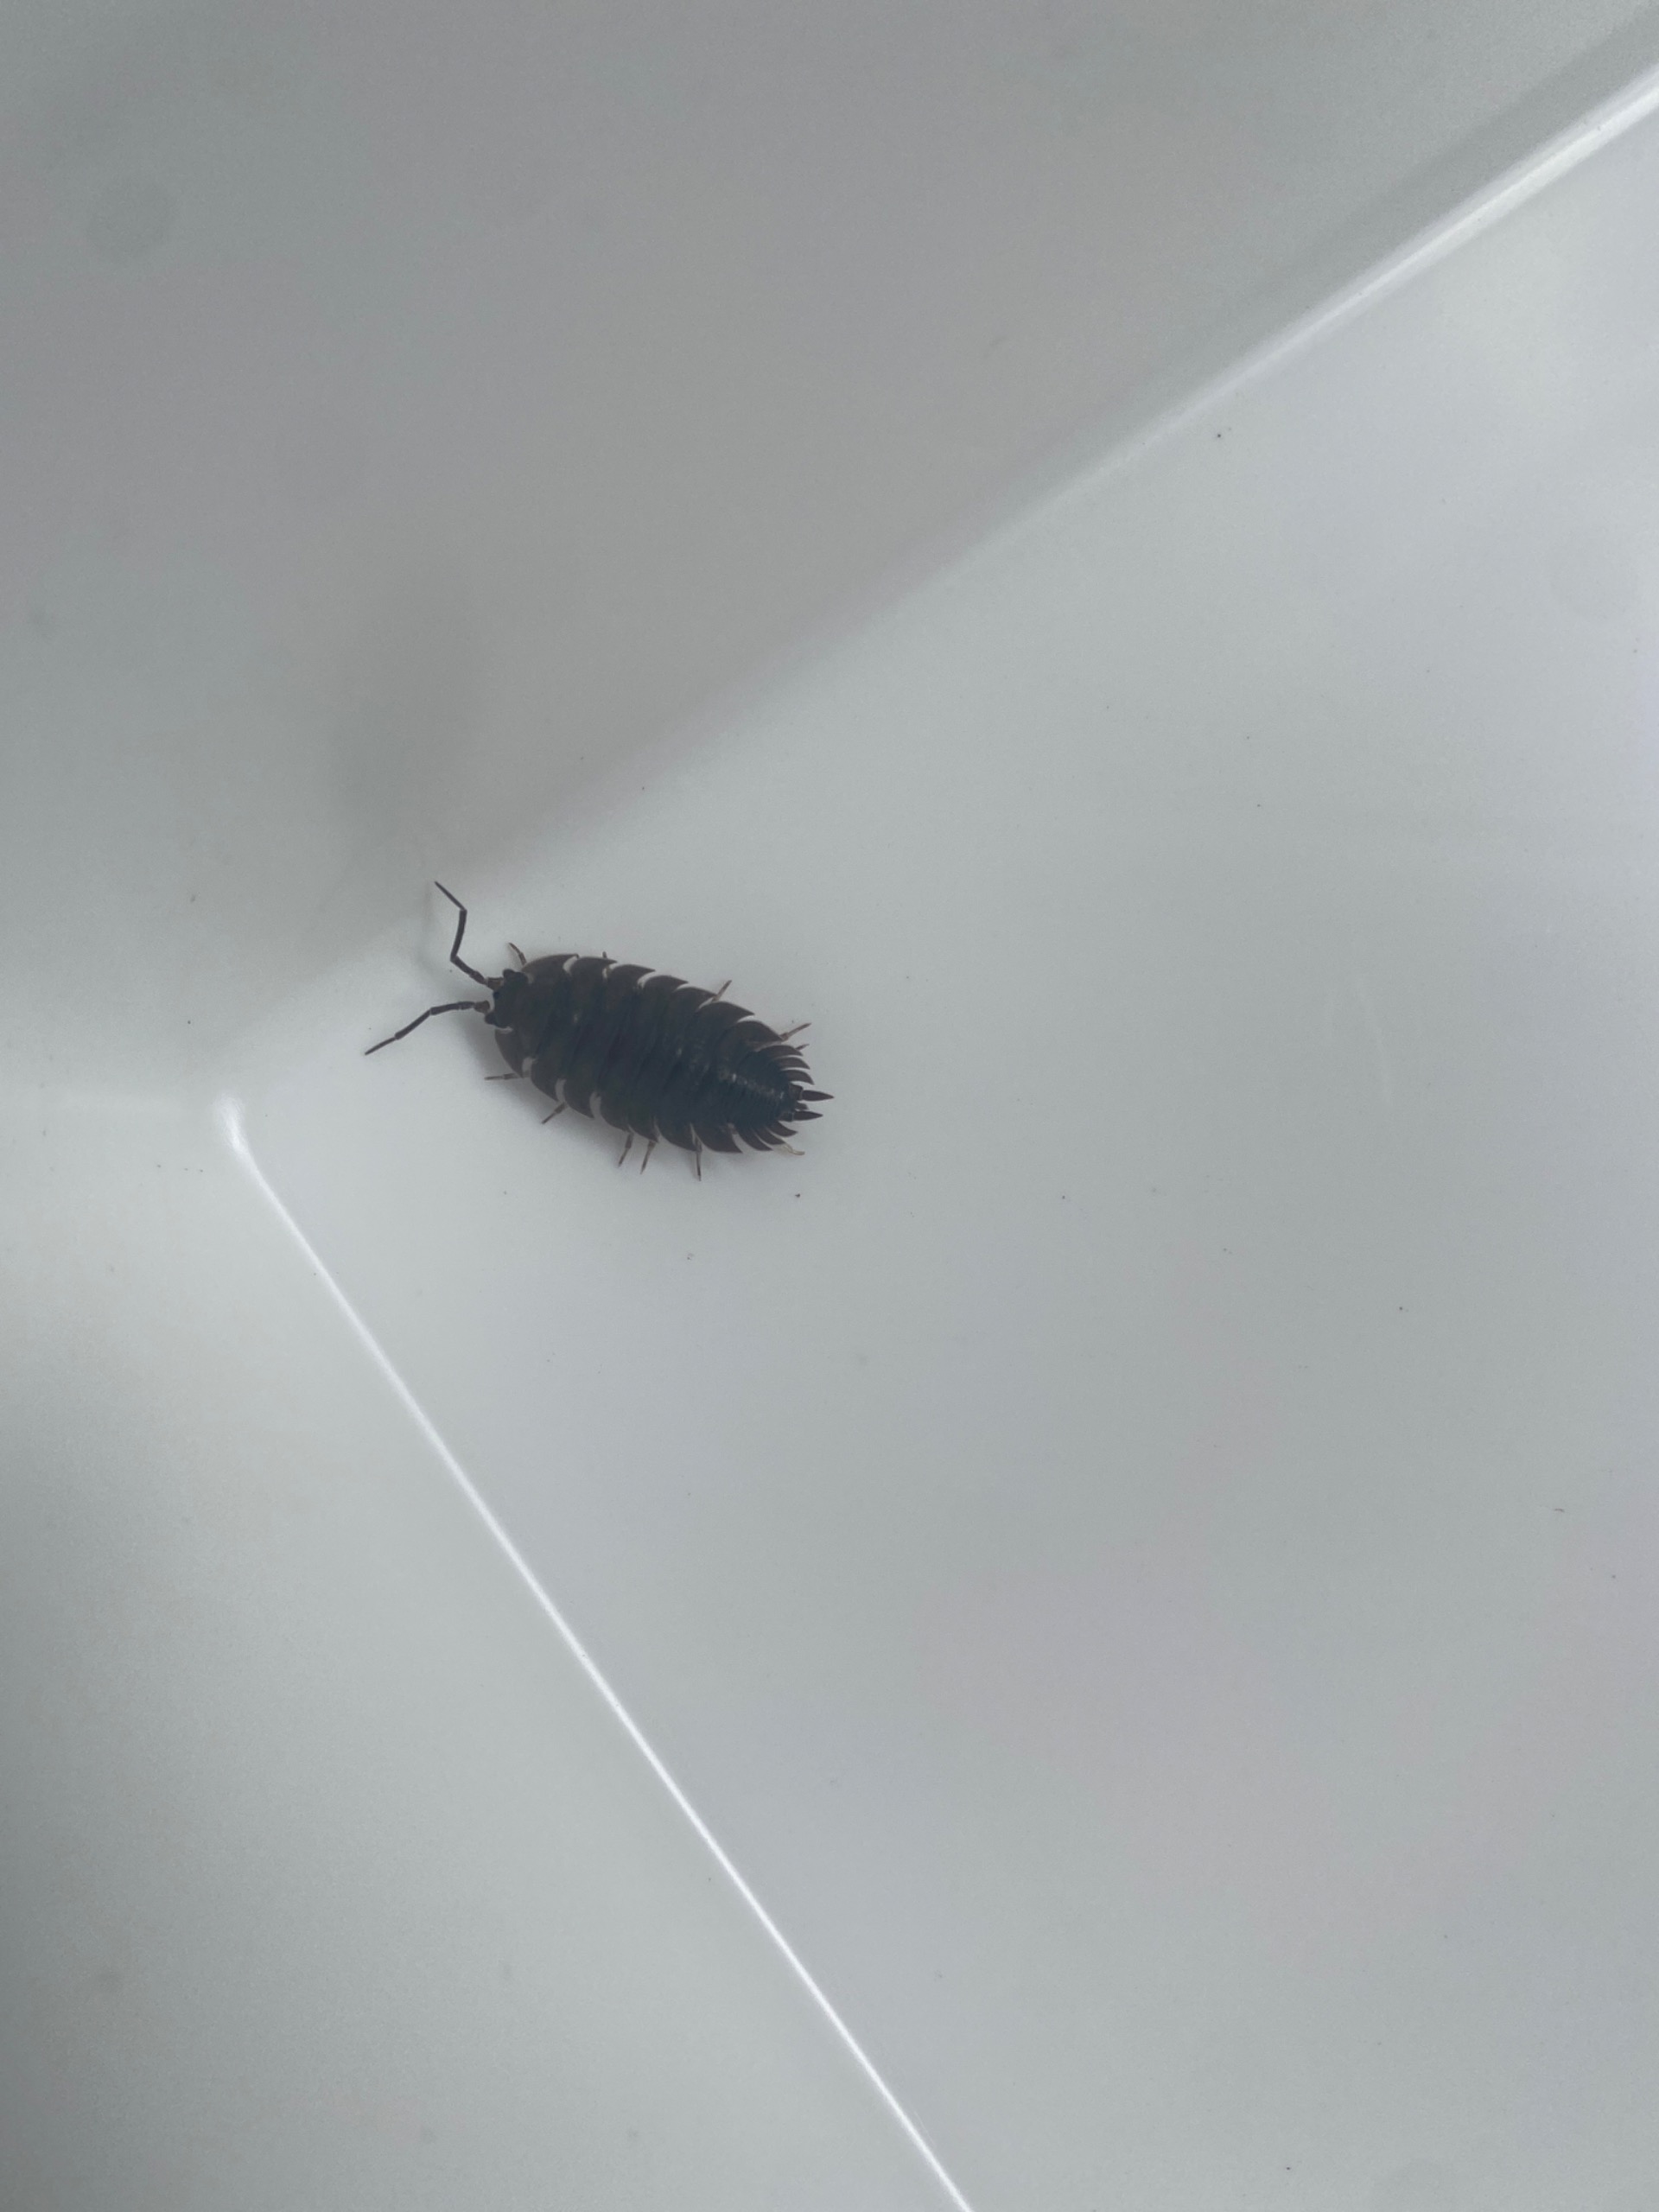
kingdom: Animalia
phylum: Arthropoda
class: Malacostraca
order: Isopoda
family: Porcellionidae
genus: Porcellio
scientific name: Porcellio scaber
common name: Grå bænkebider
